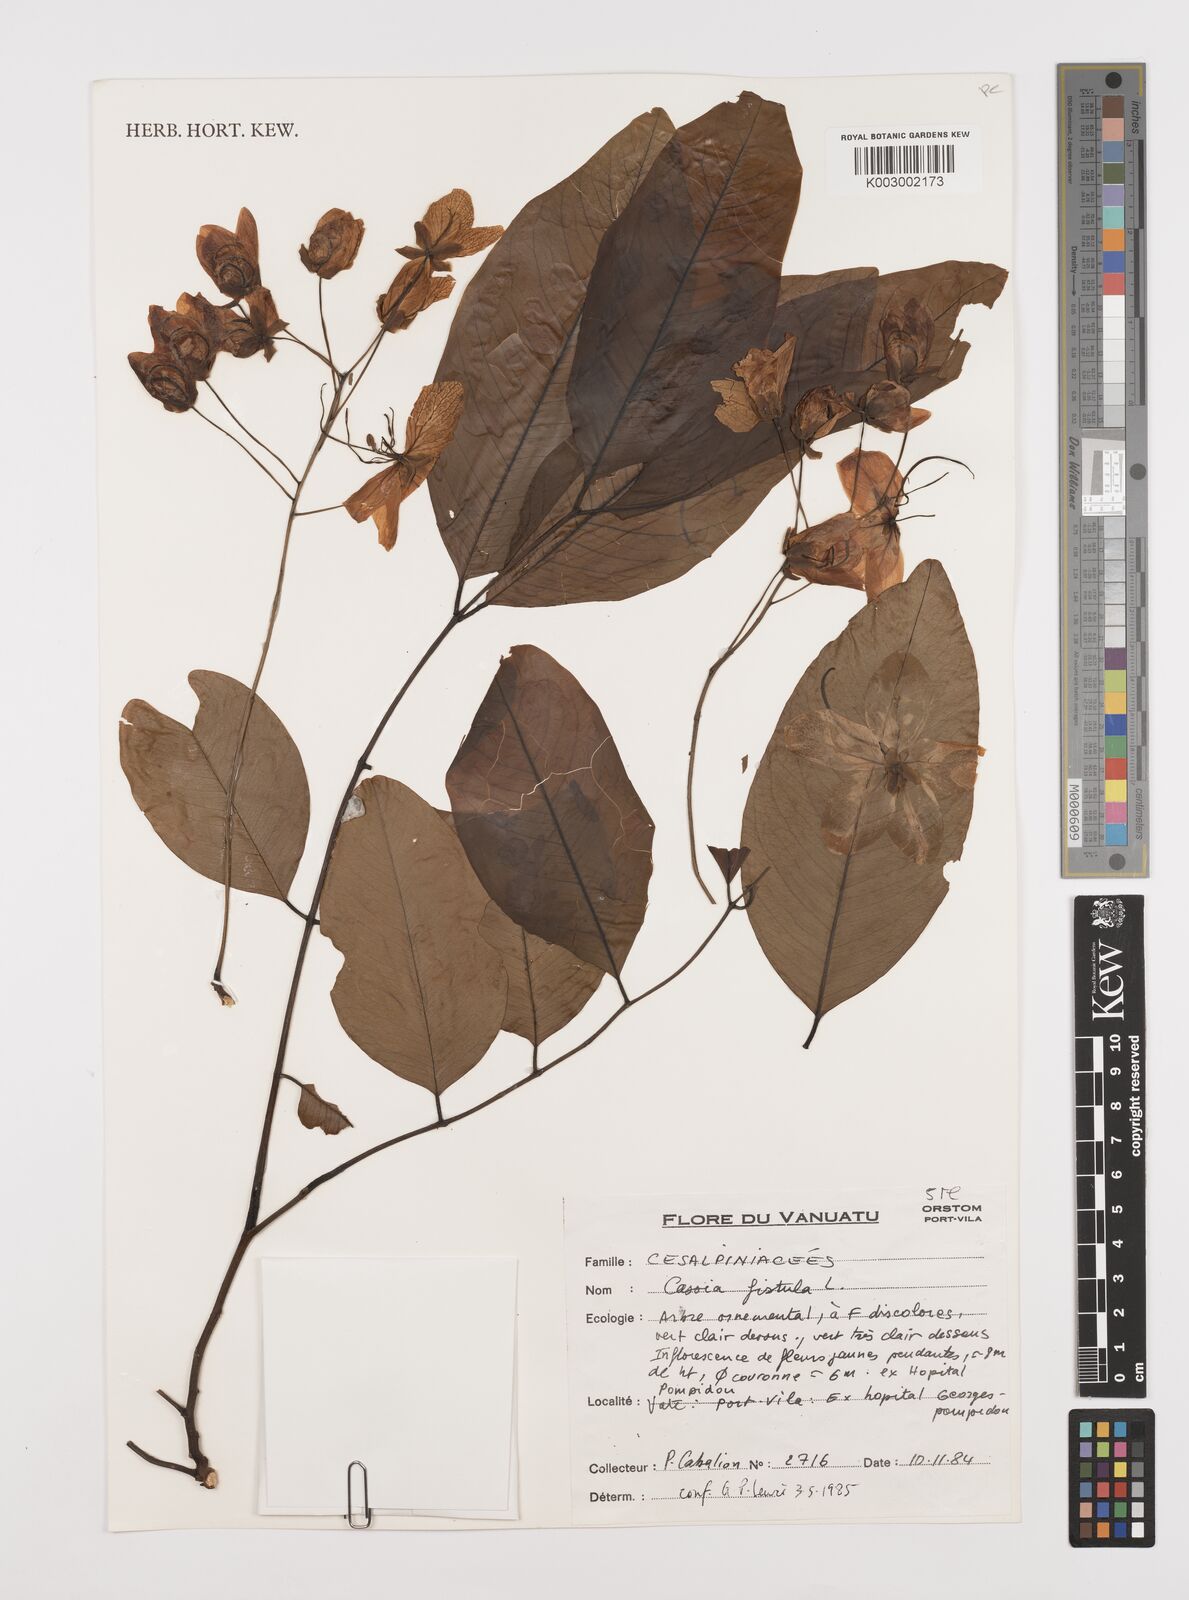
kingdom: Plantae
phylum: Tracheophyta
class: Magnoliopsida
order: Fabales
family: Fabaceae
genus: Cassia
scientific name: Cassia fistula
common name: Golden shower
